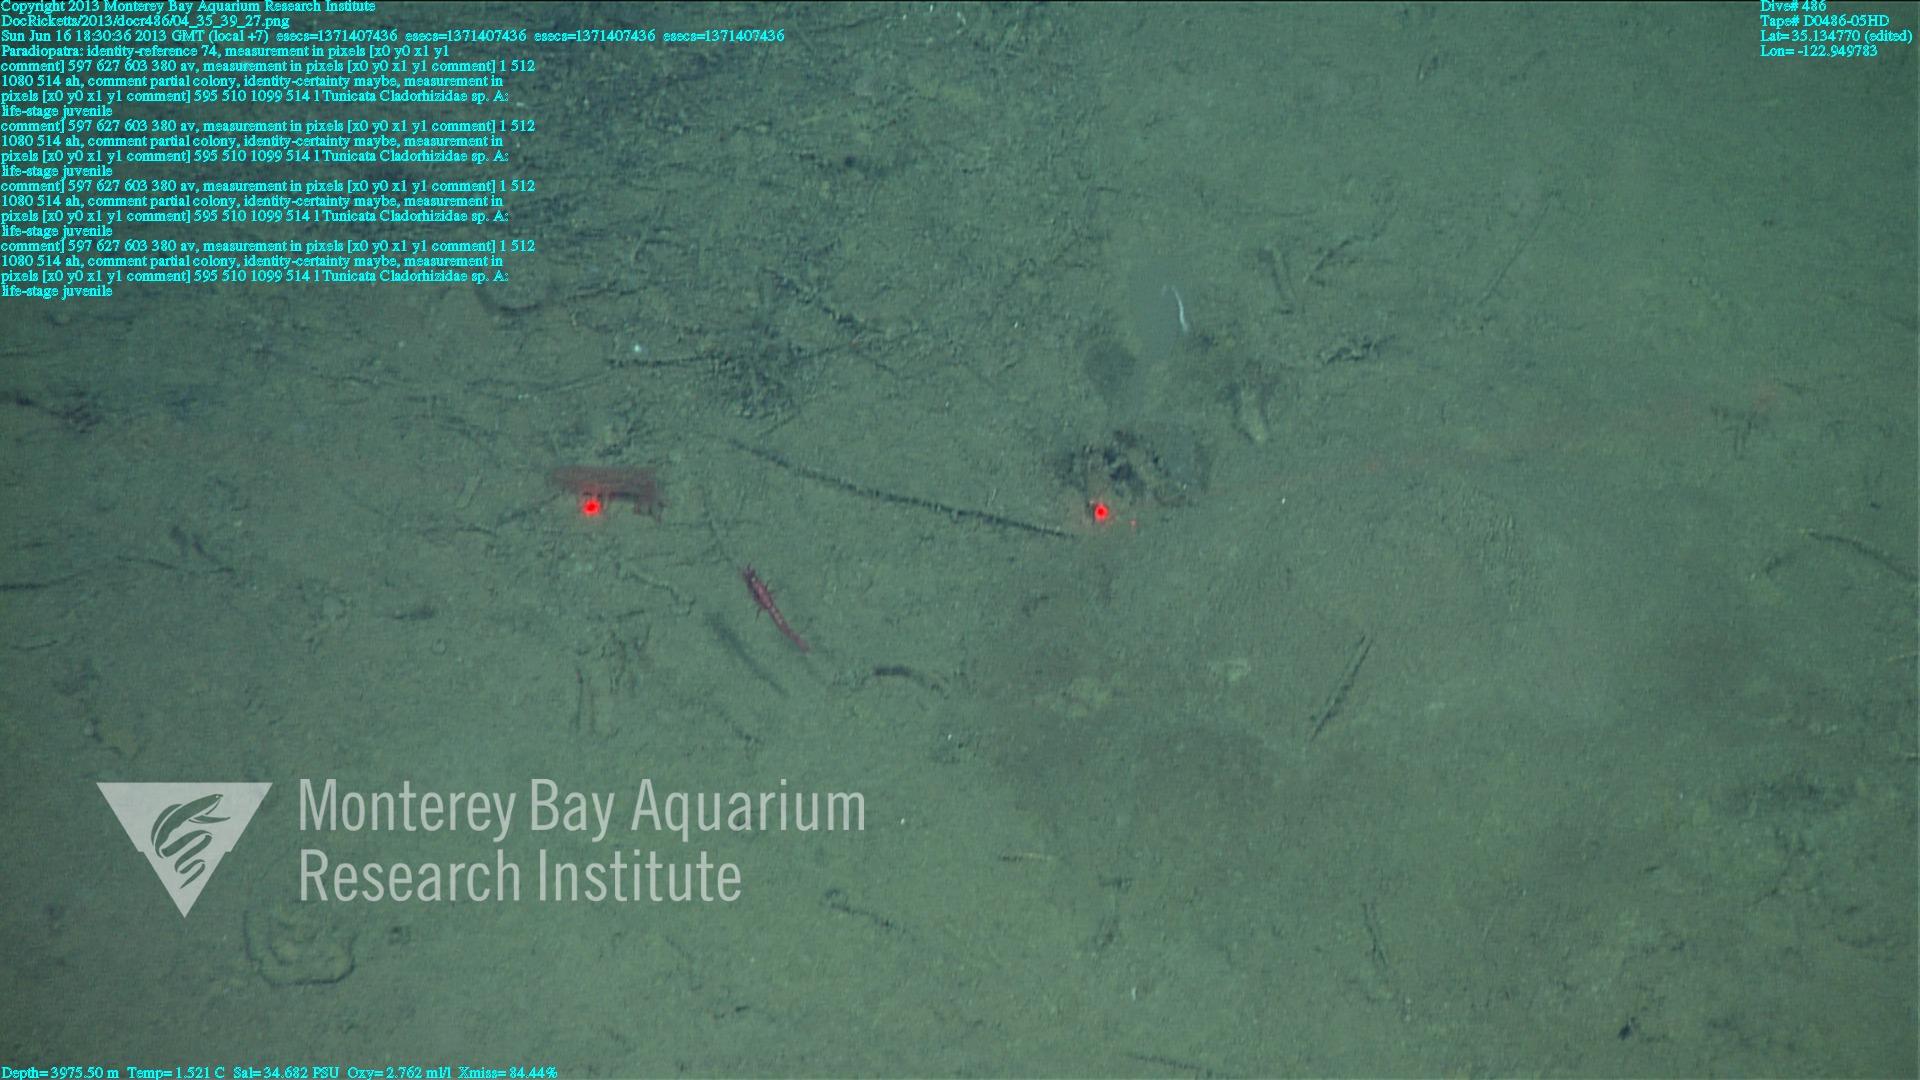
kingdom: Animalia
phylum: Porifera
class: Demospongiae
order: Poecilosclerida
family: Cladorhizidae
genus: Cladorhiza
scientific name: Cladorhiza
